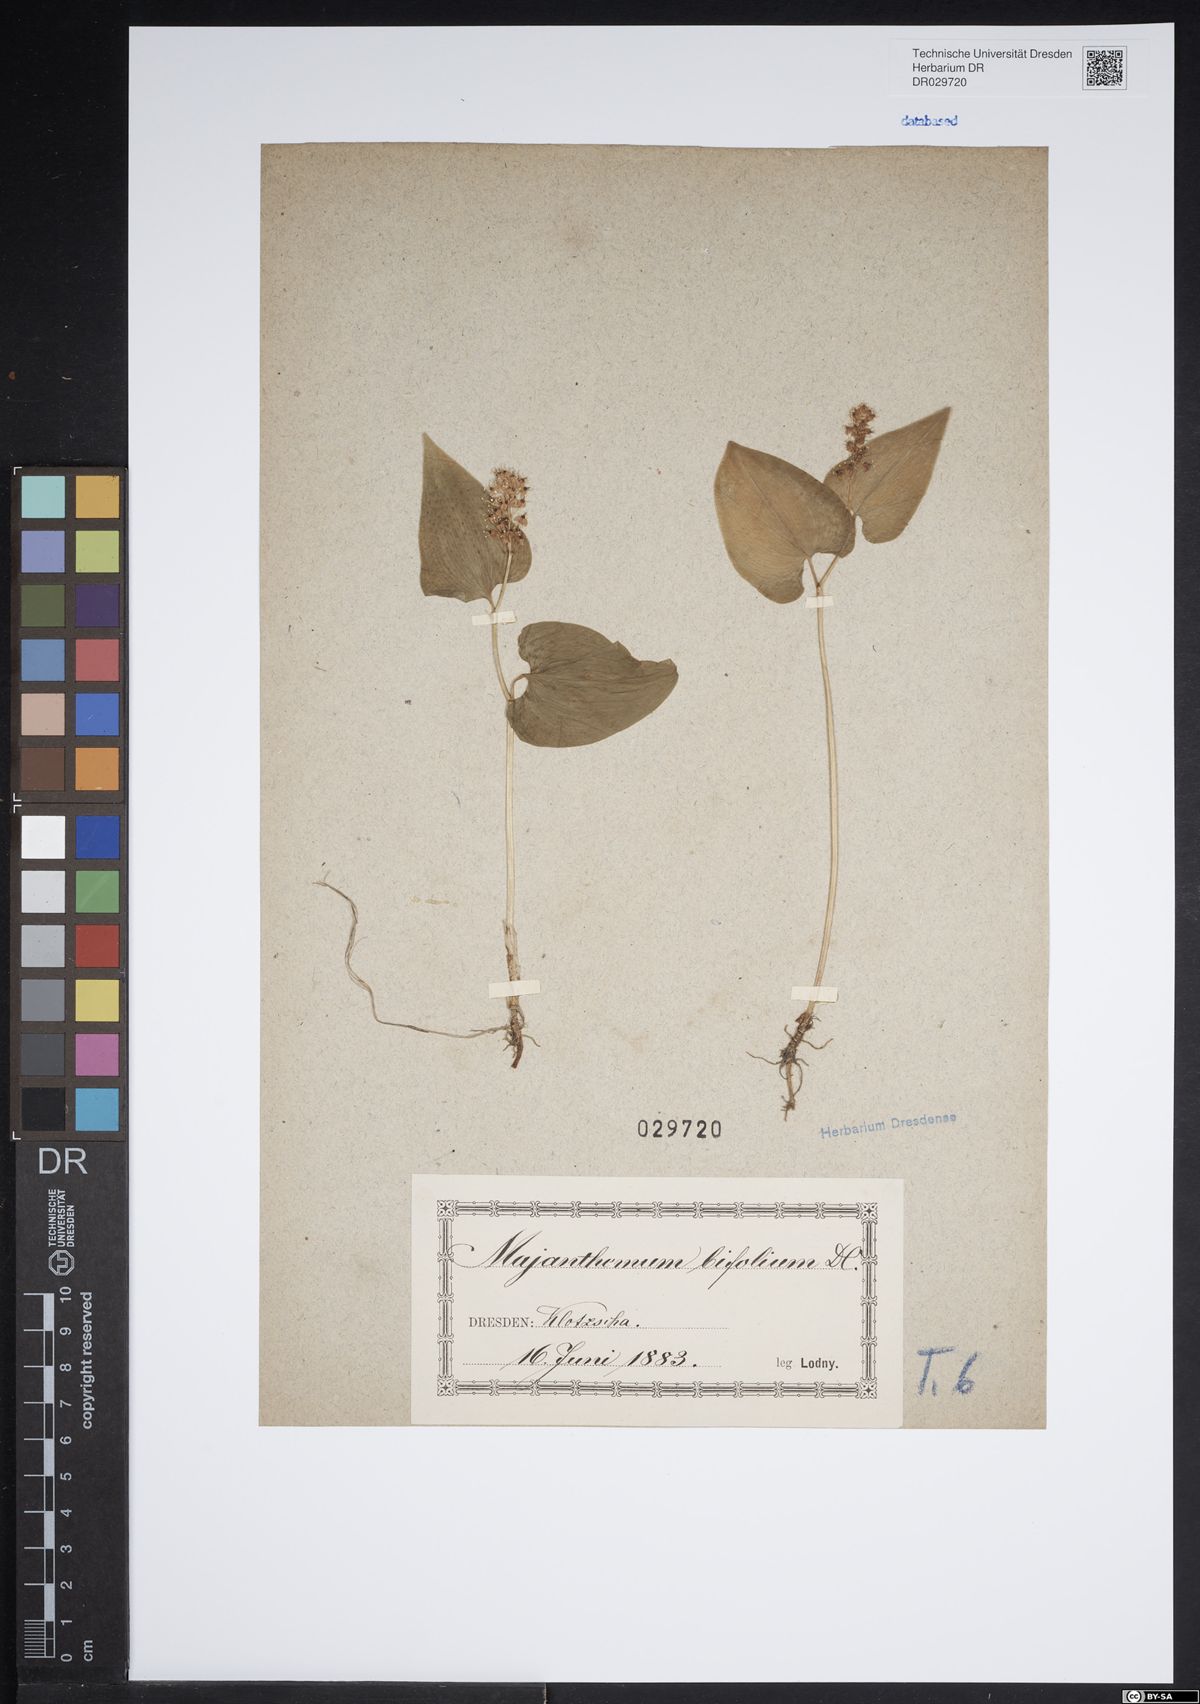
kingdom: Plantae
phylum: Tracheophyta
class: Liliopsida
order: Asparagales
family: Asparagaceae
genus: Maianthemum
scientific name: Maianthemum bifolium
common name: May lily
